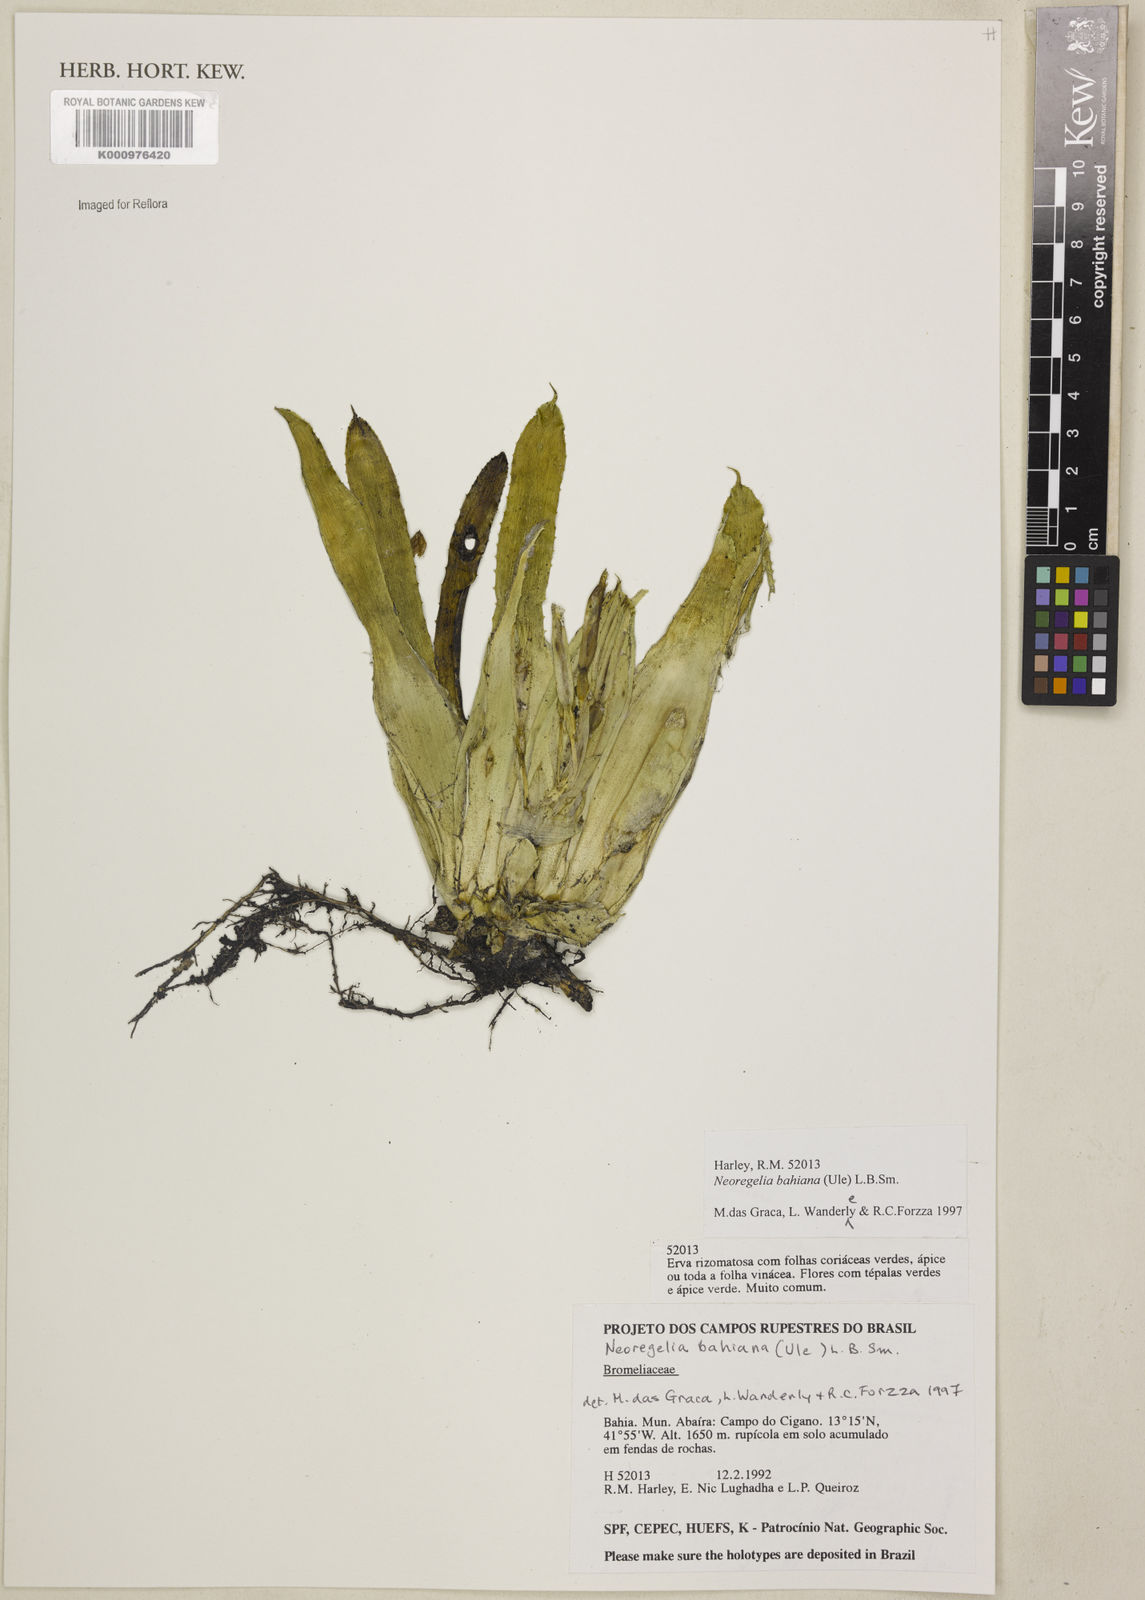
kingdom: Plantae
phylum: Tracheophyta
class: Liliopsida
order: Poales
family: Bromeliaceae
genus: Neoregelia
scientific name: Neoregelia bahiana
